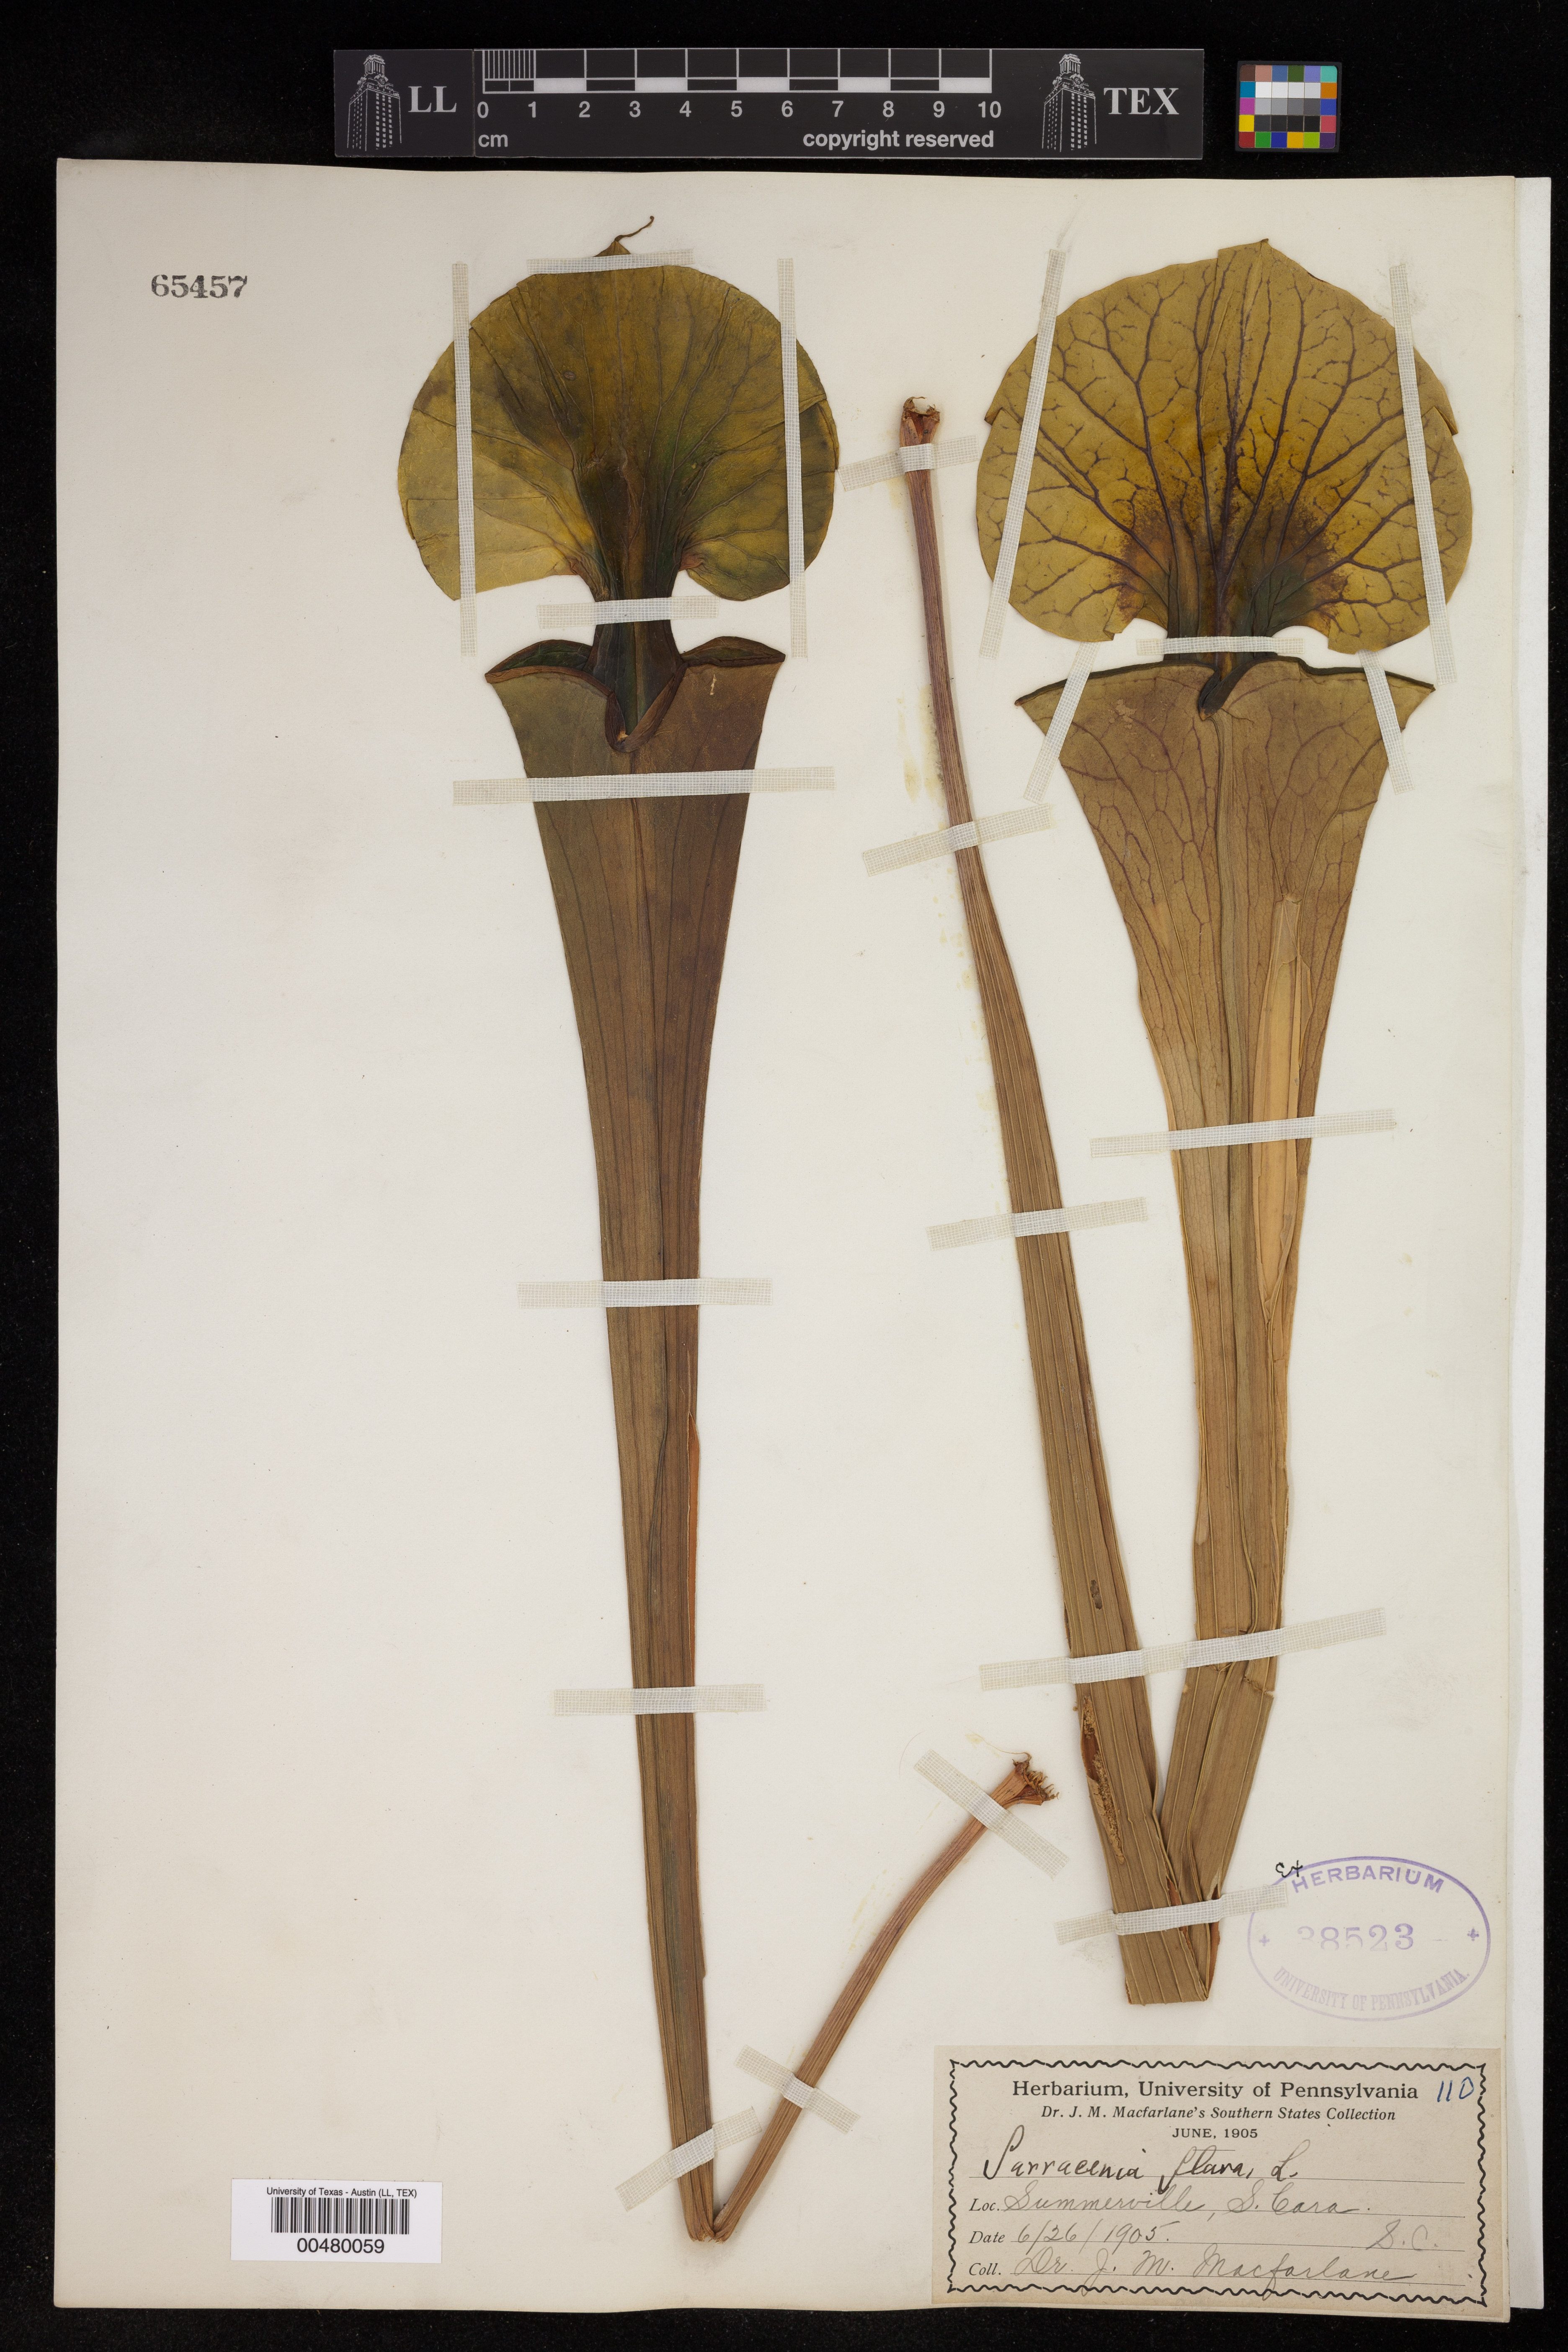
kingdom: Plantae
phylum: Tracheophyta
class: Magnoliopsida
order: Ericales
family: Sarraceniaceae
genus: Sarracenia
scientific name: Sarracenia flava
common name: Trumpets
